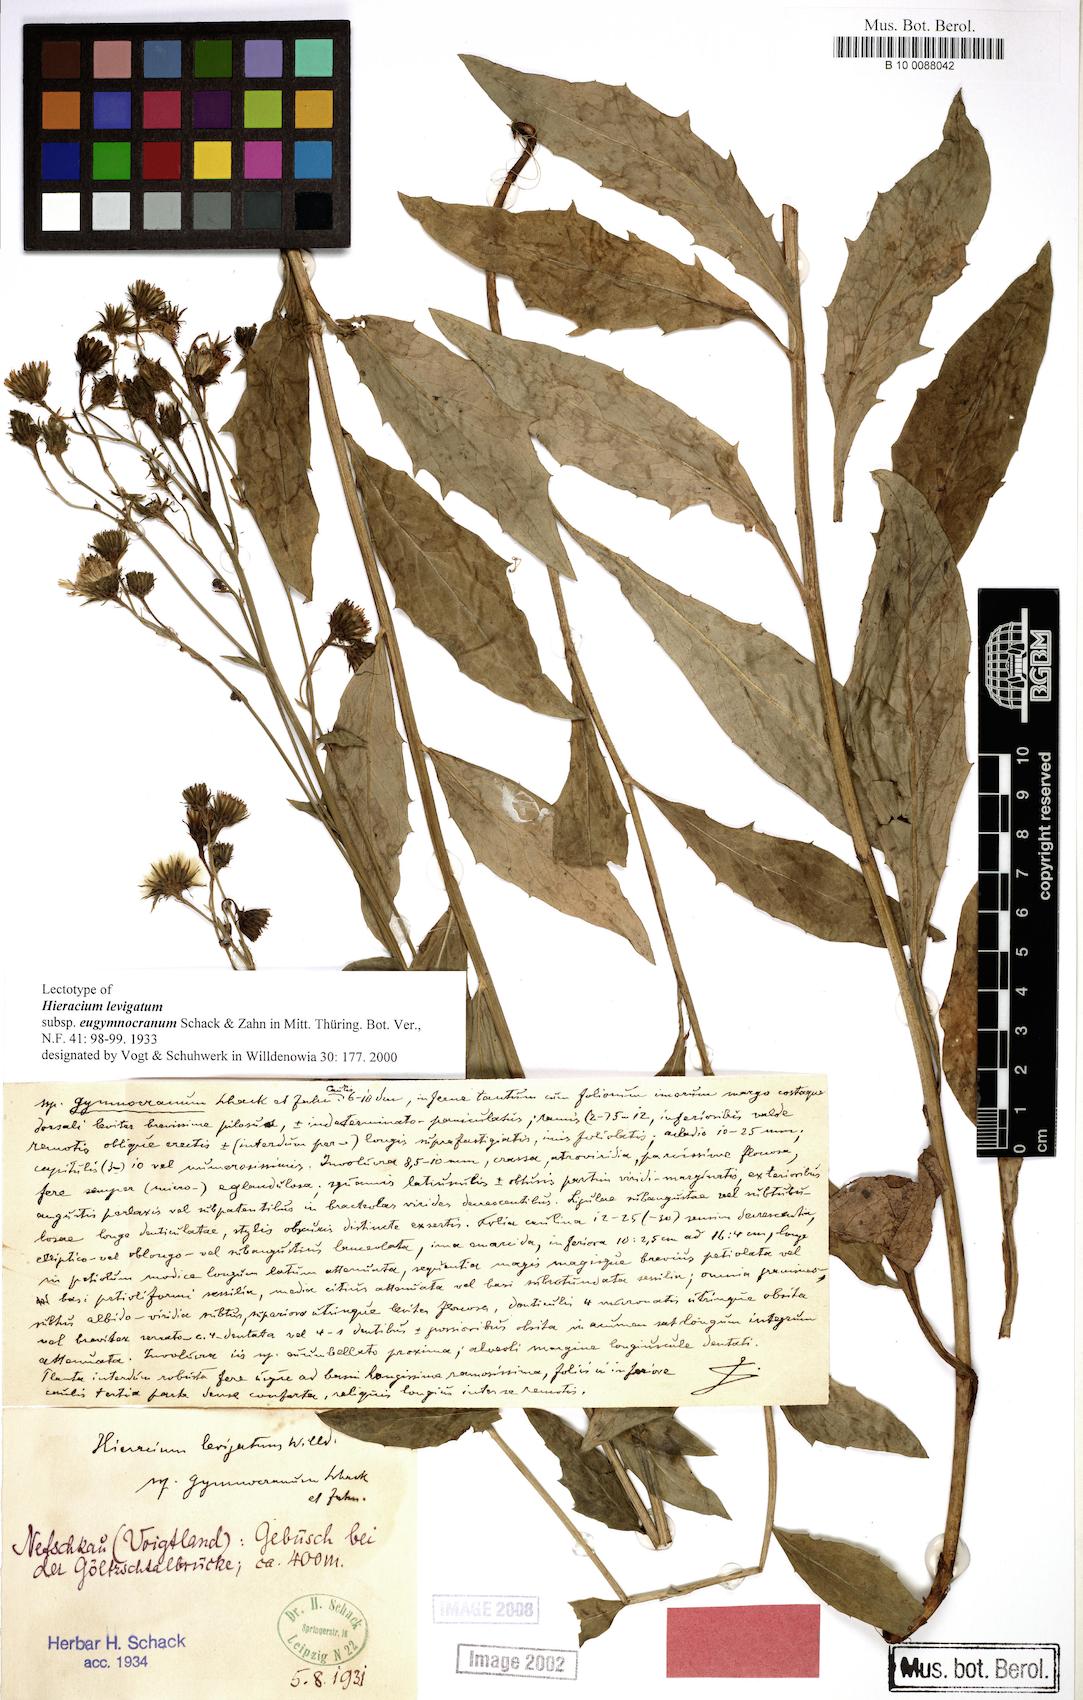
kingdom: Plantae
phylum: Tracheophyta
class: Magnoliopsida
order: Asterales
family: Asteraceae
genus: Hieracium
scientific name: Hieracium laevigatum
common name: Smooth hawkweed
